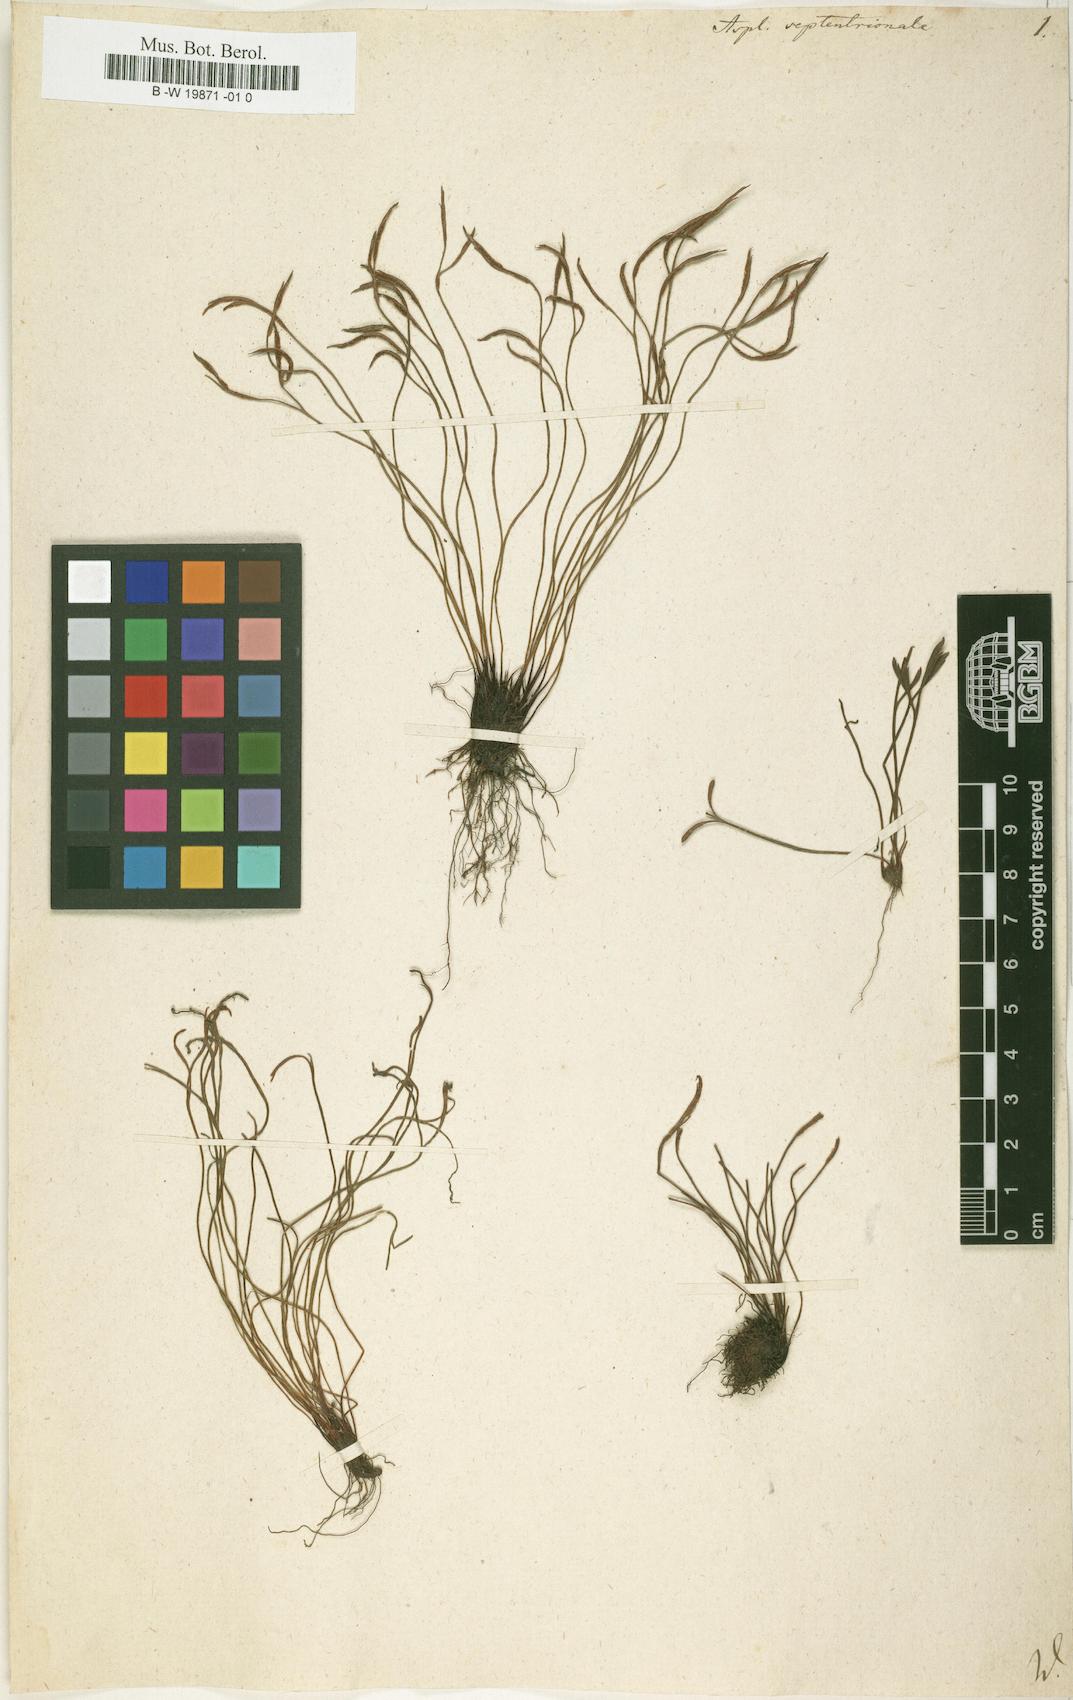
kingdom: Plantae
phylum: Tracheophyta
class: Polypodiopsida
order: Polypodiales
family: Aspleniaceae
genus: Asplenium
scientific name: Asplenium septentrionale
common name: Forked spleenwort
